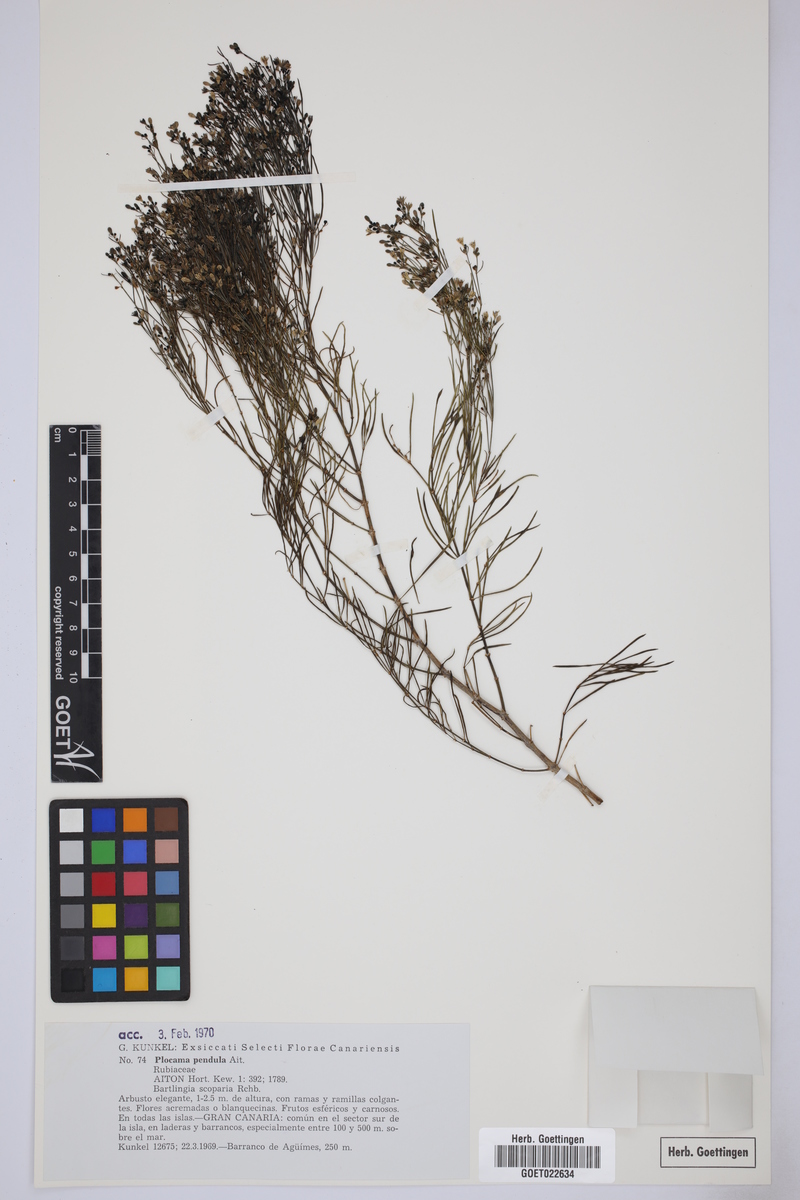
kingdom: Plantae
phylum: Tracheophyta
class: Magnoliopsida
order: Gentianales
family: Rubiaceae
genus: Plocama
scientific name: Plocama pendula
